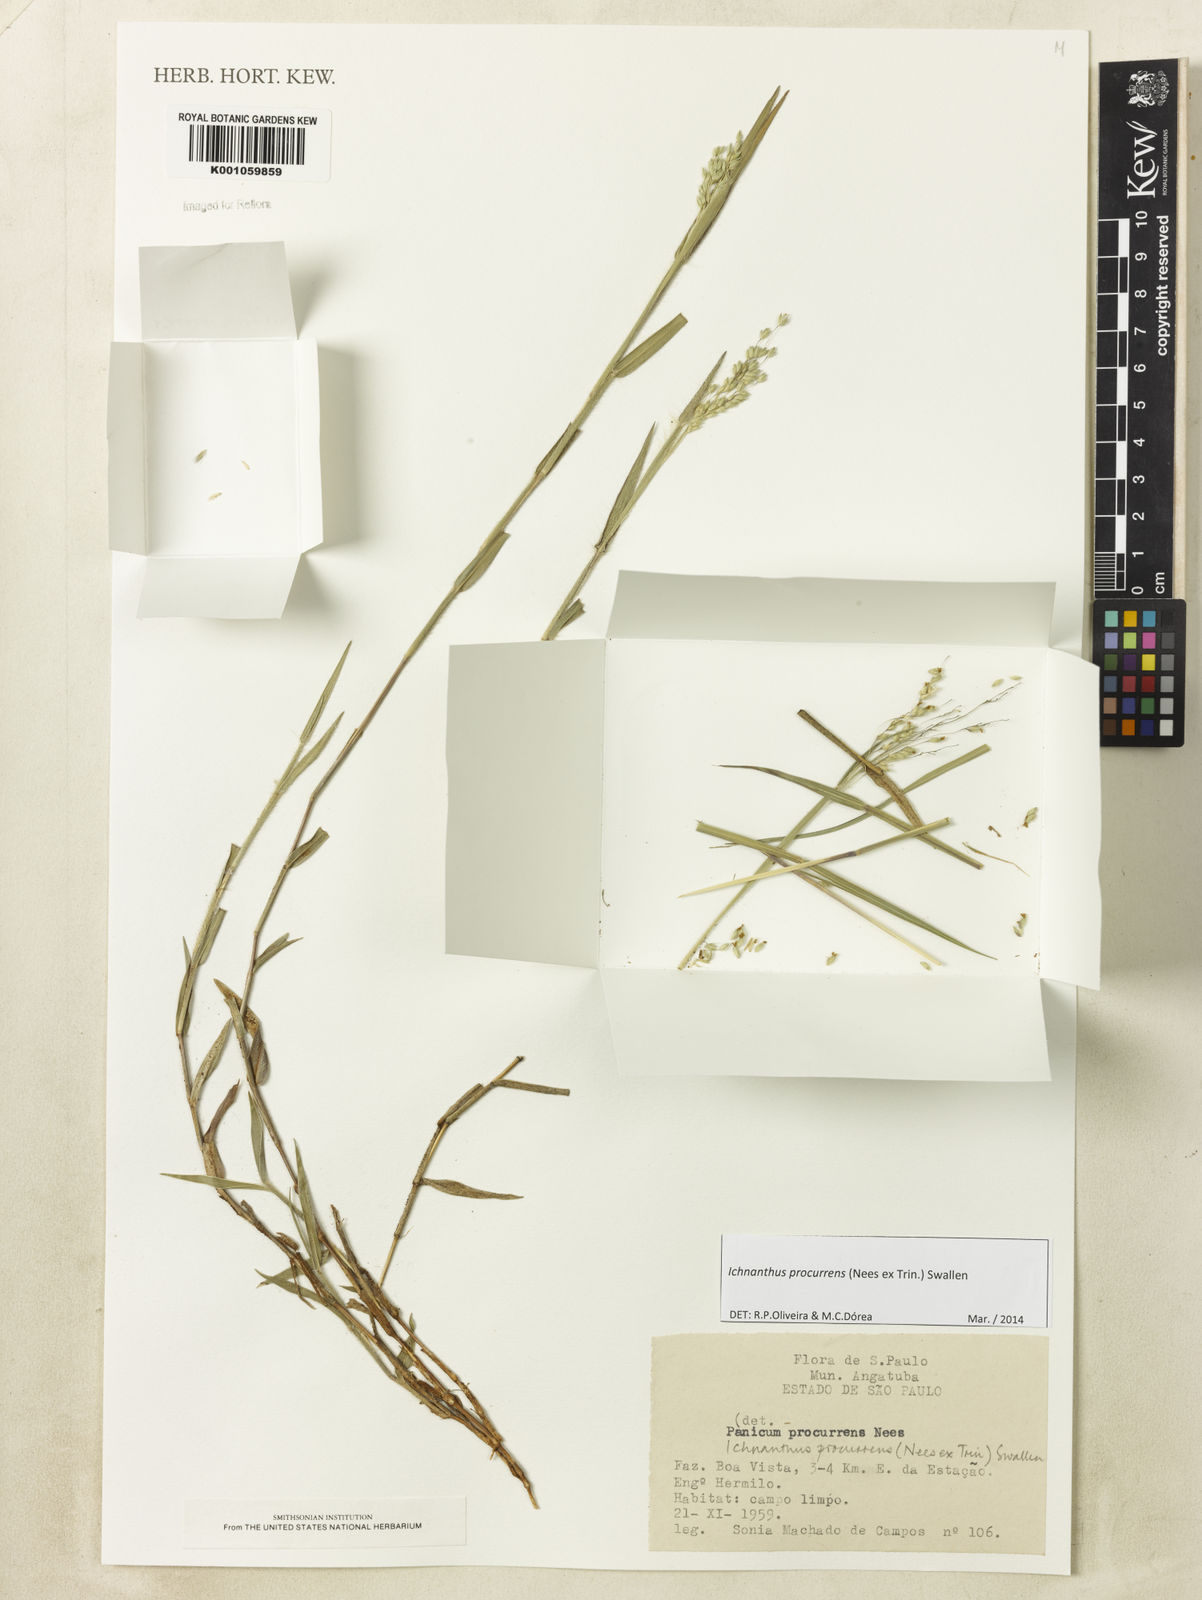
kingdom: Plantae
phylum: Tracheophyta
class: Liliopsida
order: Poales
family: Poaceae
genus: Oedochloa
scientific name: Oedochloa procurrens
